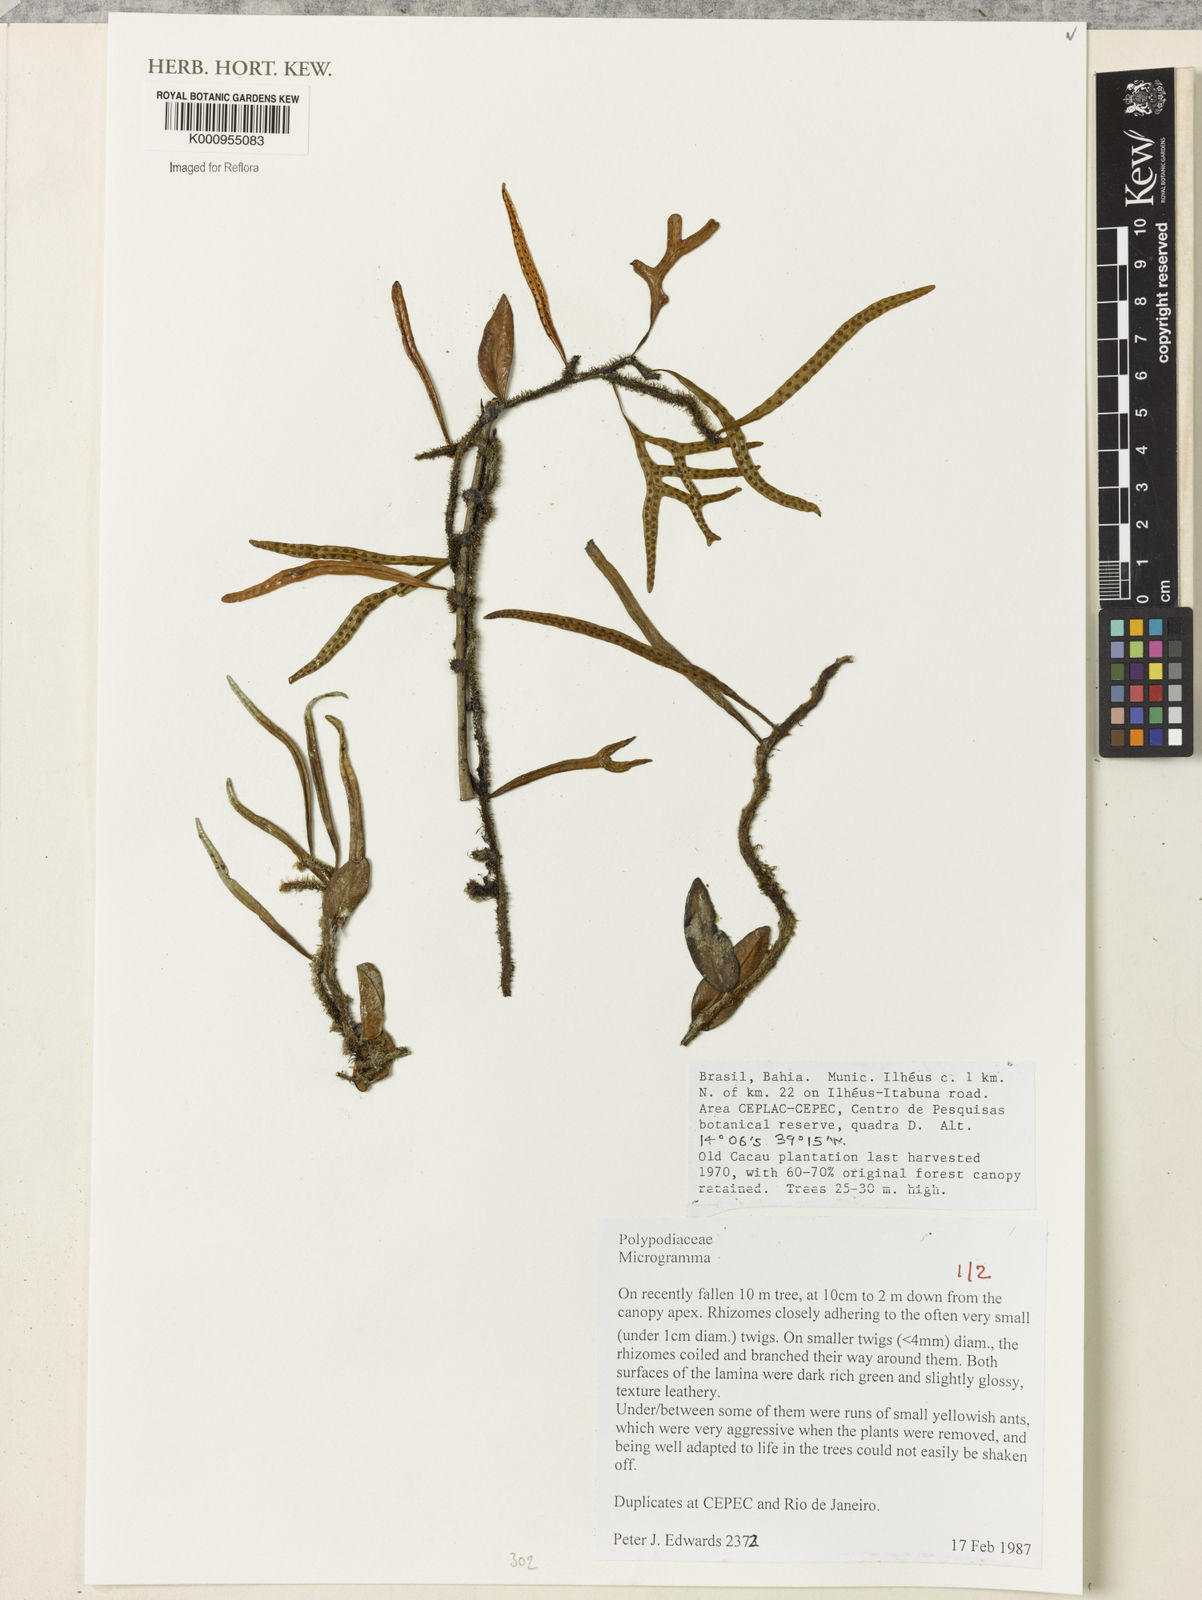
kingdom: Plantae
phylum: Tracheophyta
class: Polypodiopsida
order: Polypodiales
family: Polypodiaceae
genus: Microgramma
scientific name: Microgramma
